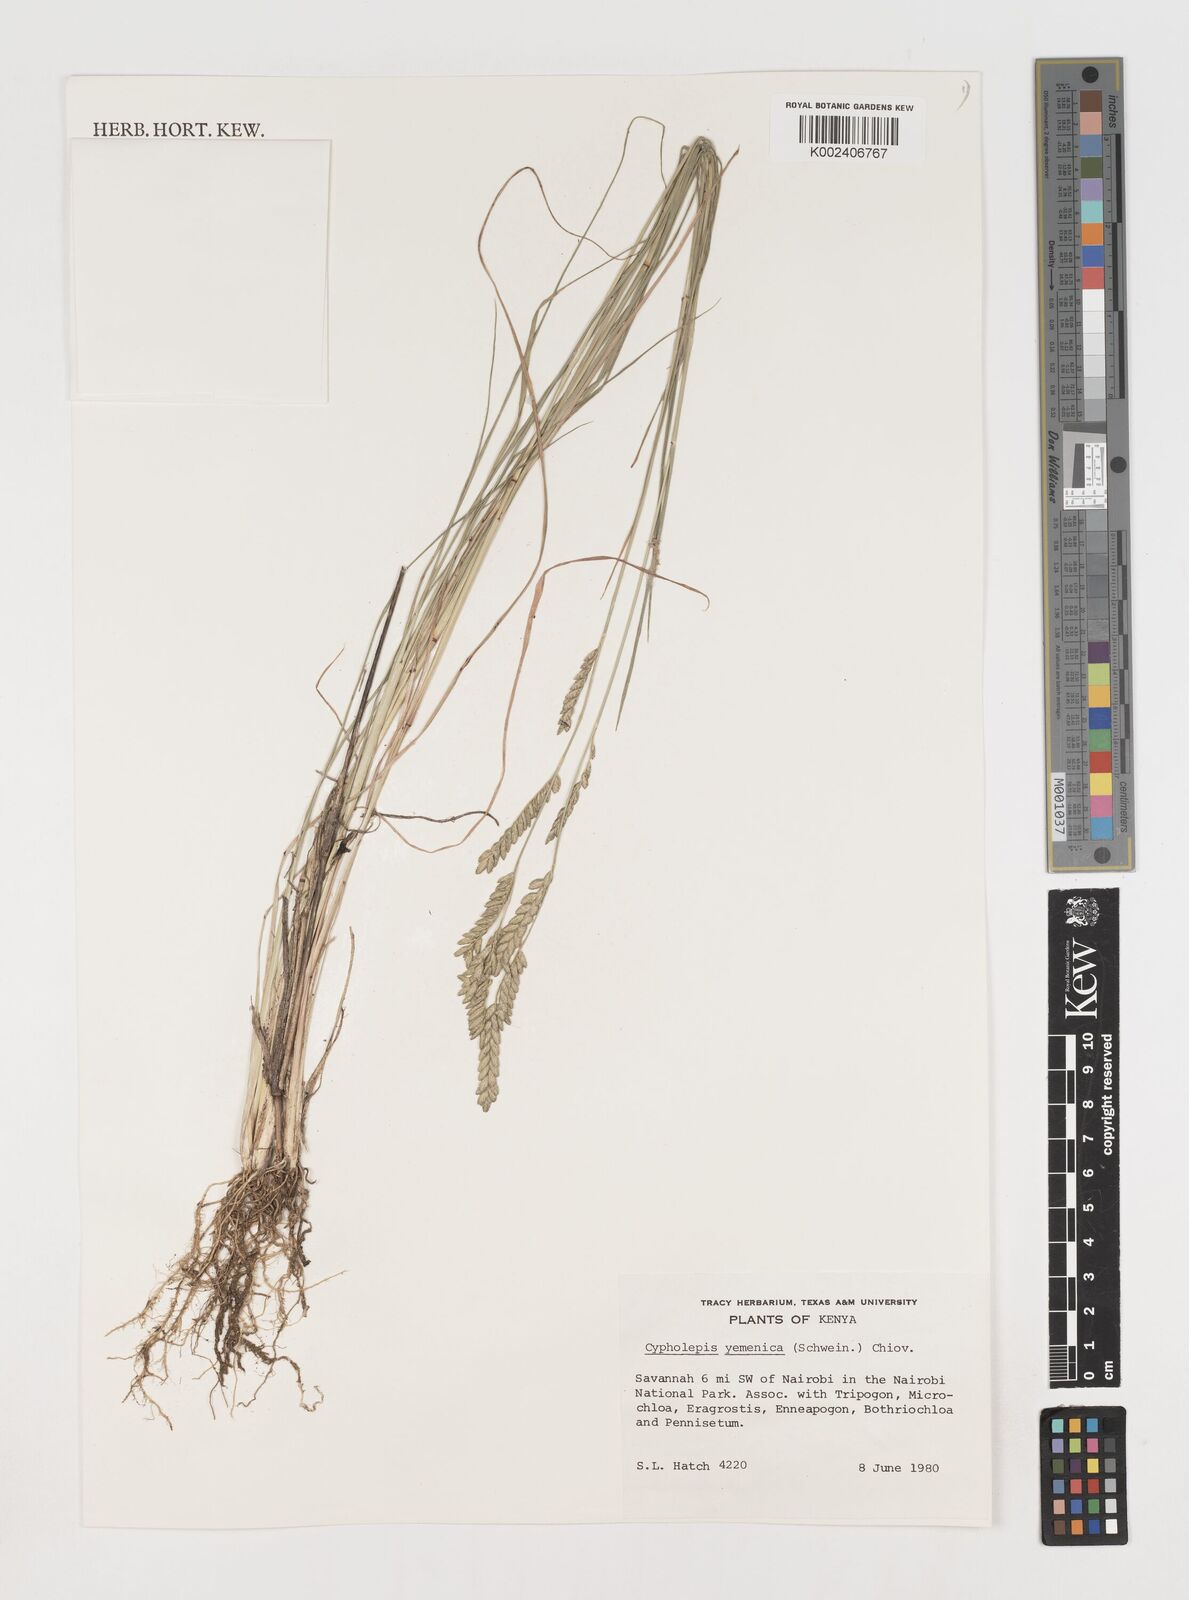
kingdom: Plantae
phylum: Tracheophyta
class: Liliopsida
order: Poales
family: Poaceae
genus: Disakisperma
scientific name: Disakisperma yemenicum
